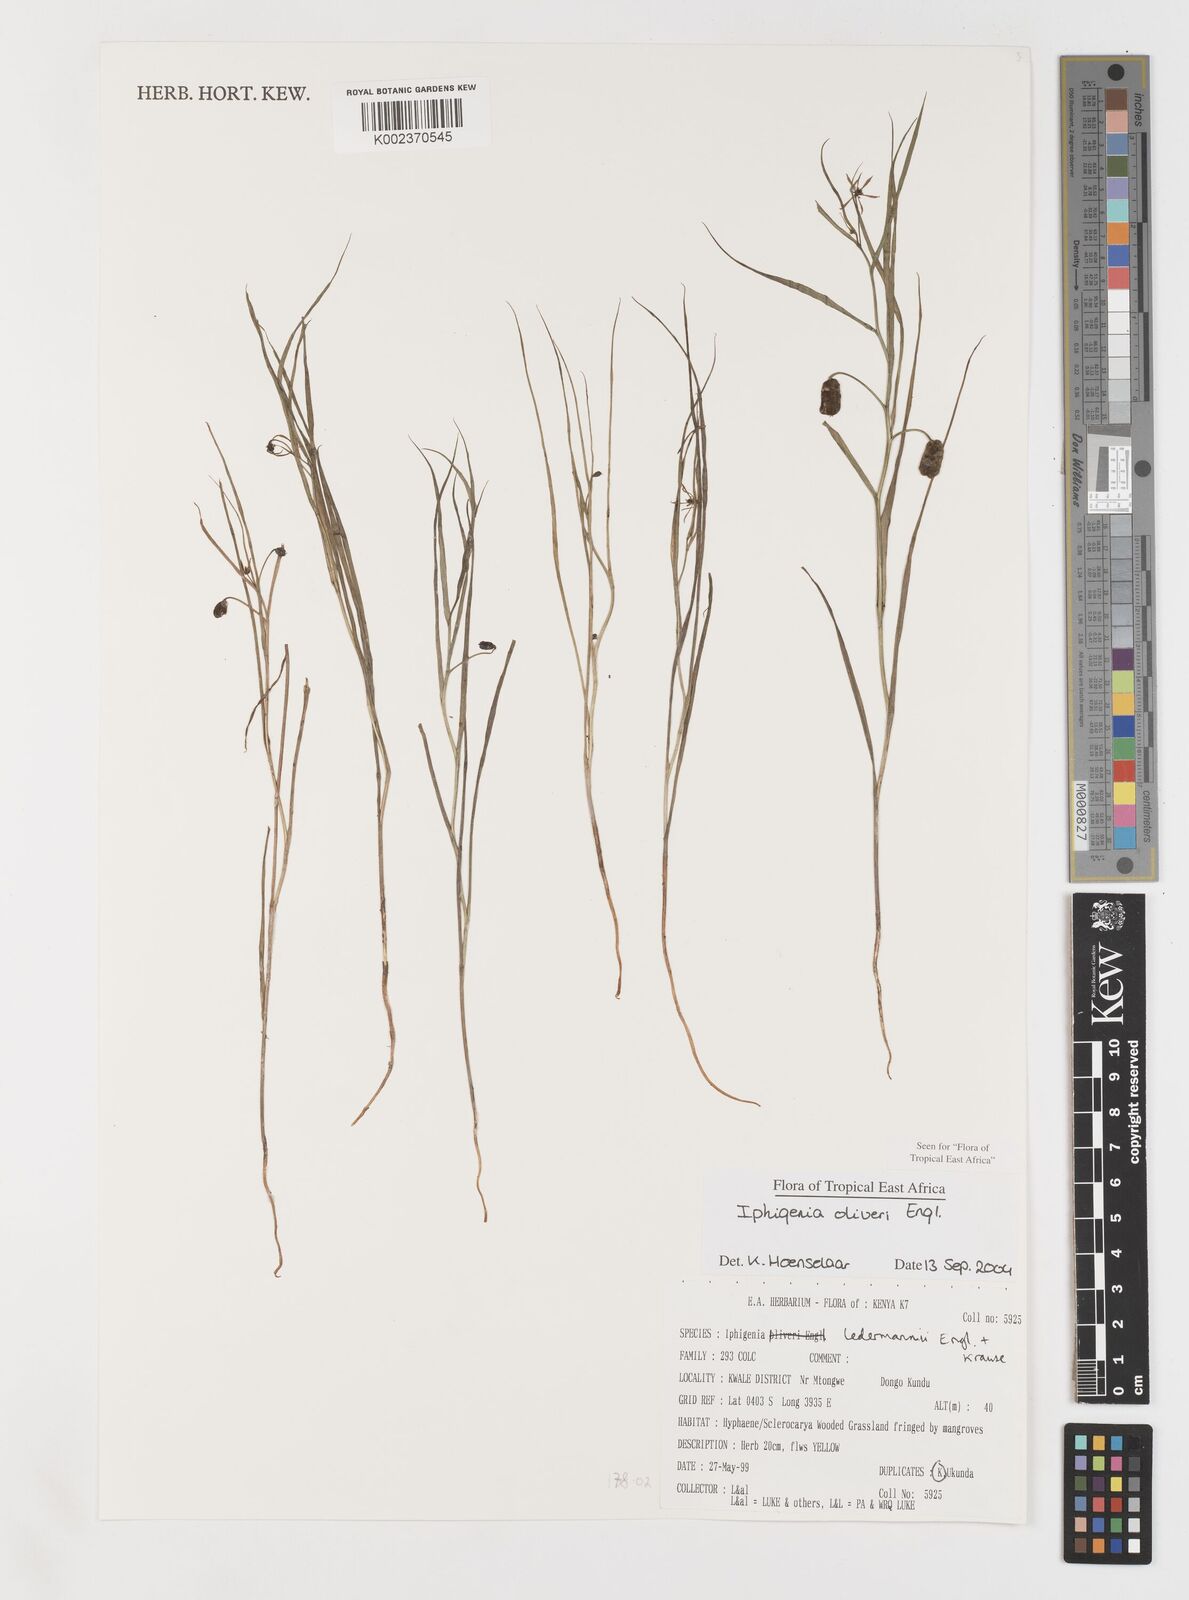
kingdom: Plantae
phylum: Tracheophyta
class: Liliopsida
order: Liliales
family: Colchicaceae
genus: Iphigenia
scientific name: Iphigenia oliveri
